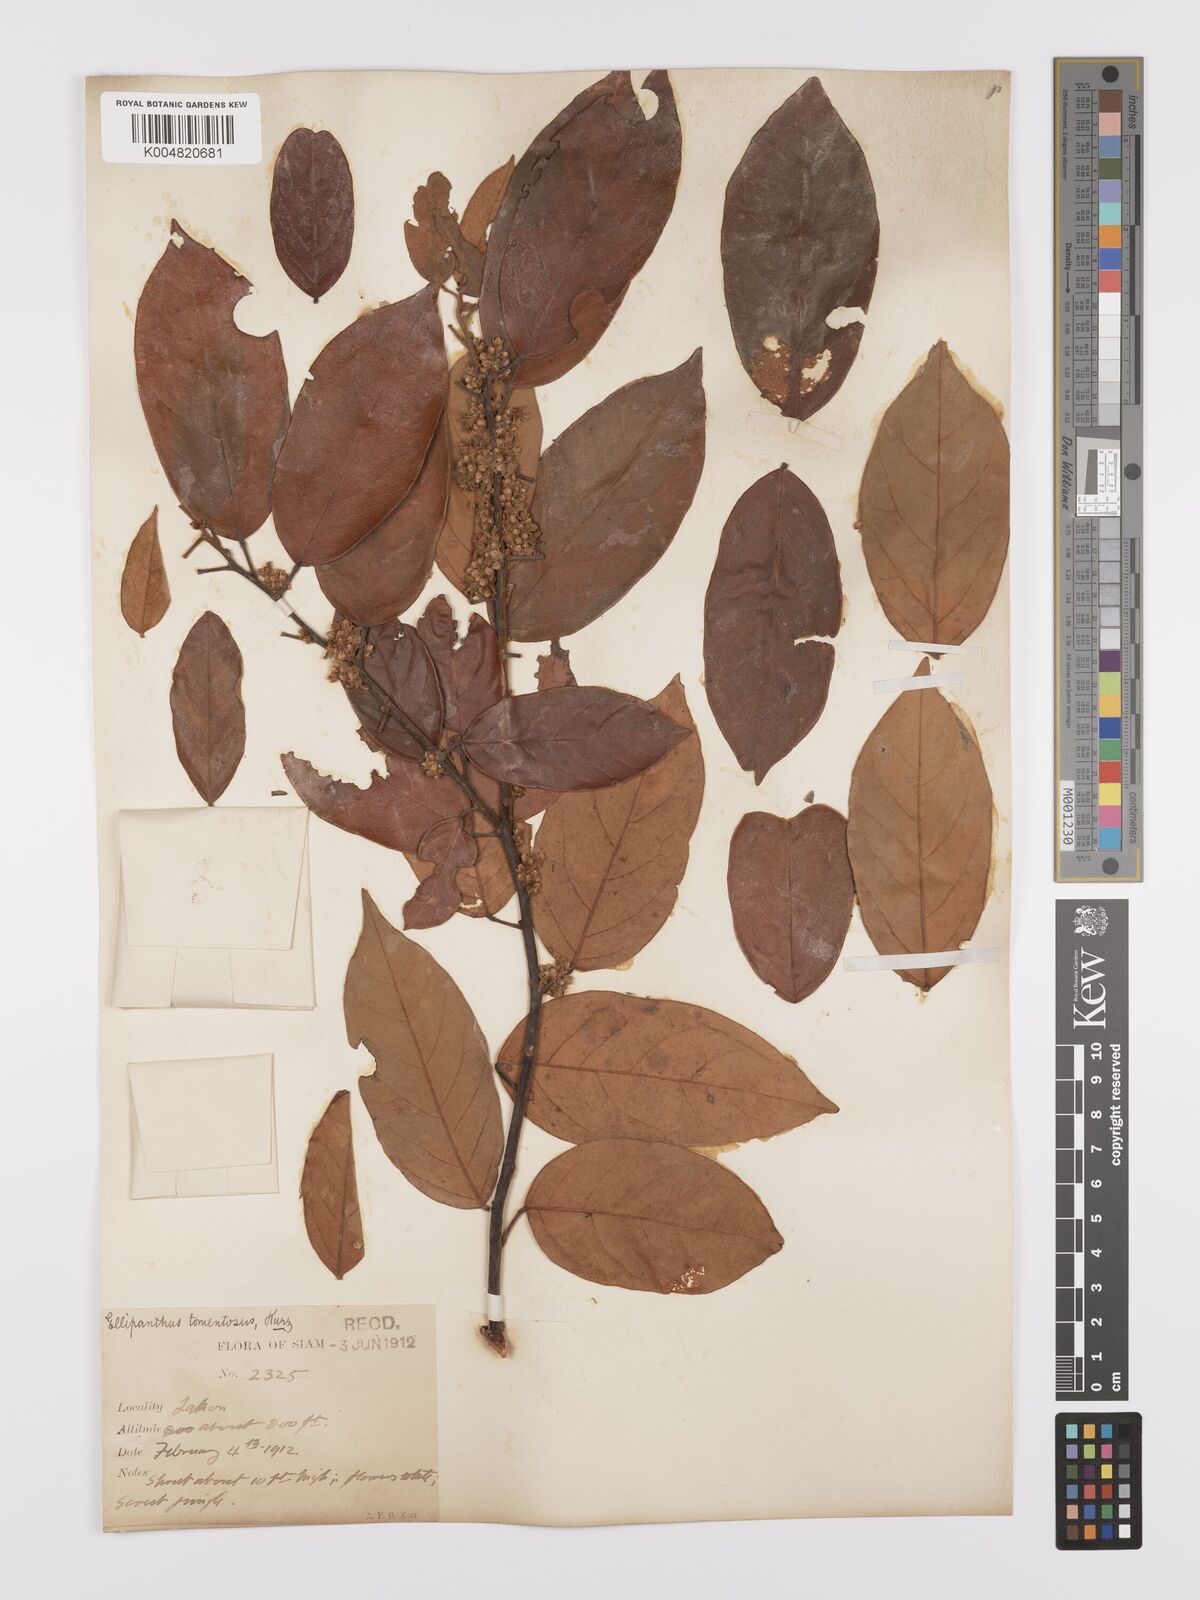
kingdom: Plantae
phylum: Tracheophyta
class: Magnoliopsida
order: Oxalidales
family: Connaraceae
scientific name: Connaraceae
